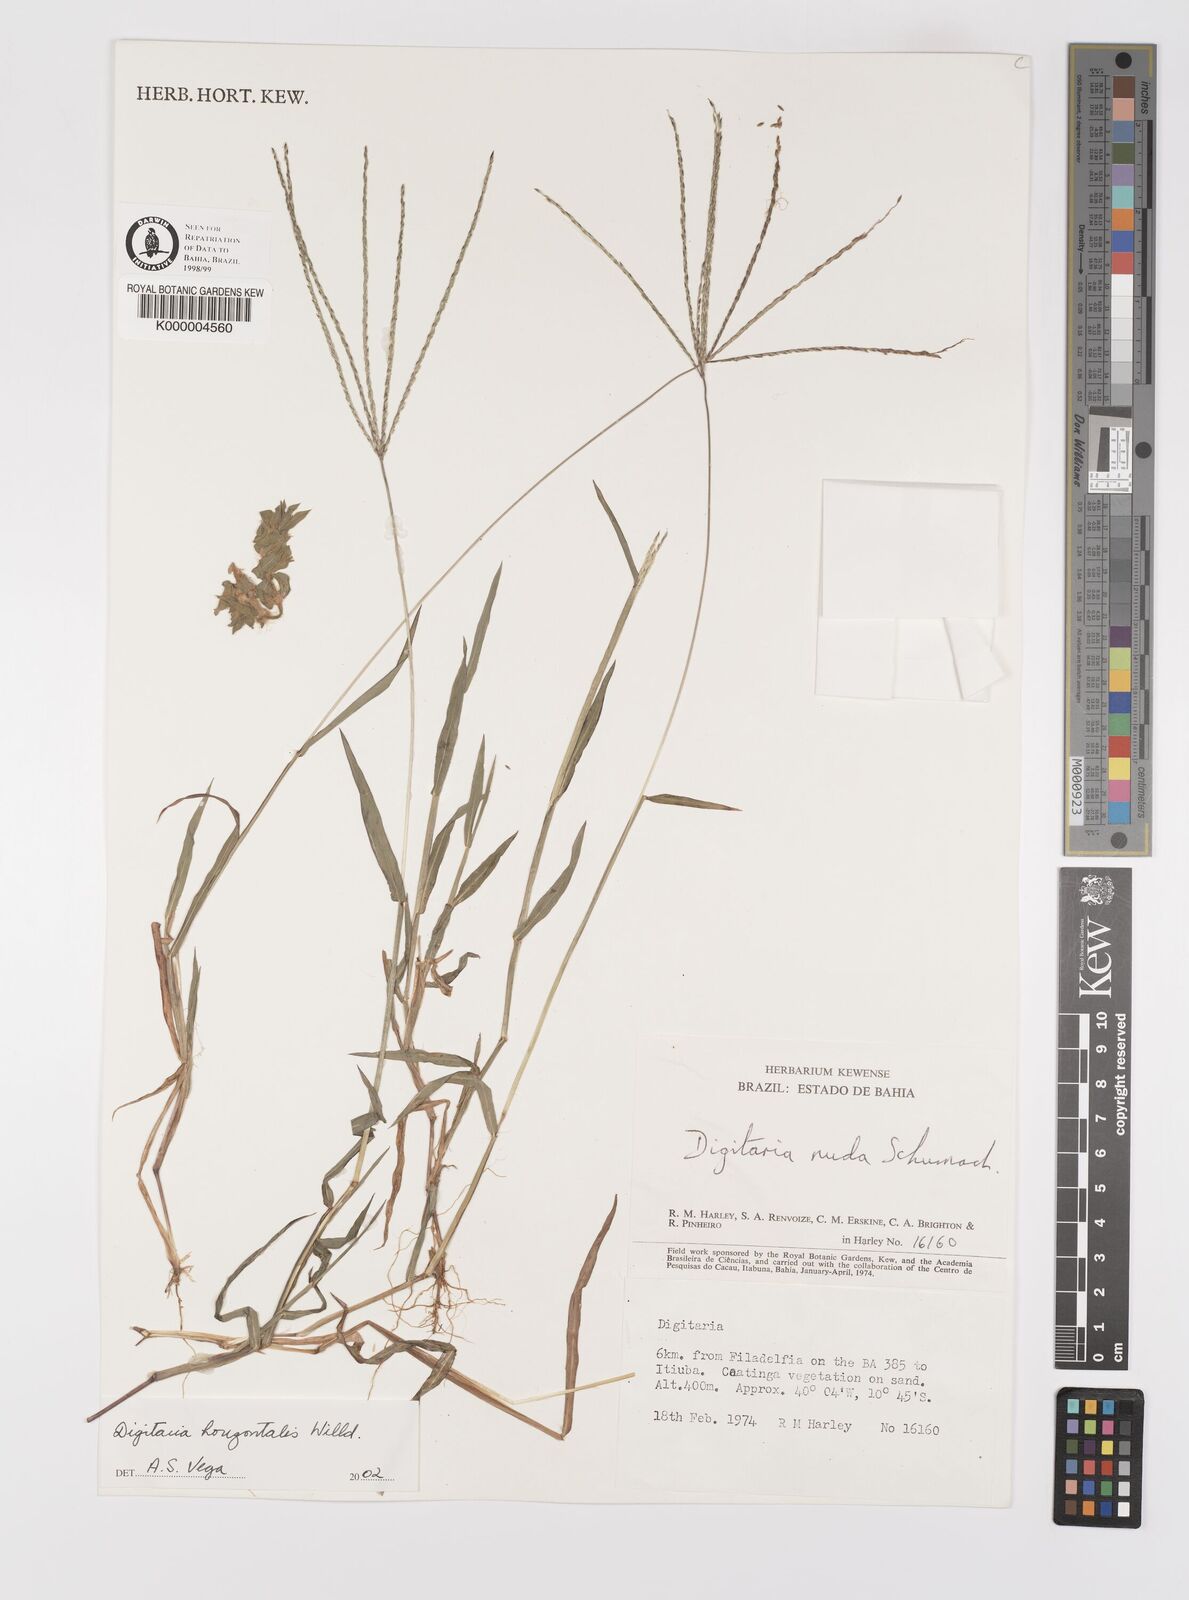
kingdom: Plantae
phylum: Tracheophyta
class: Liliopsida
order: Poales
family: Poaceae
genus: Digitaria
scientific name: Digitaria nuda
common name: Naked crabgrass
